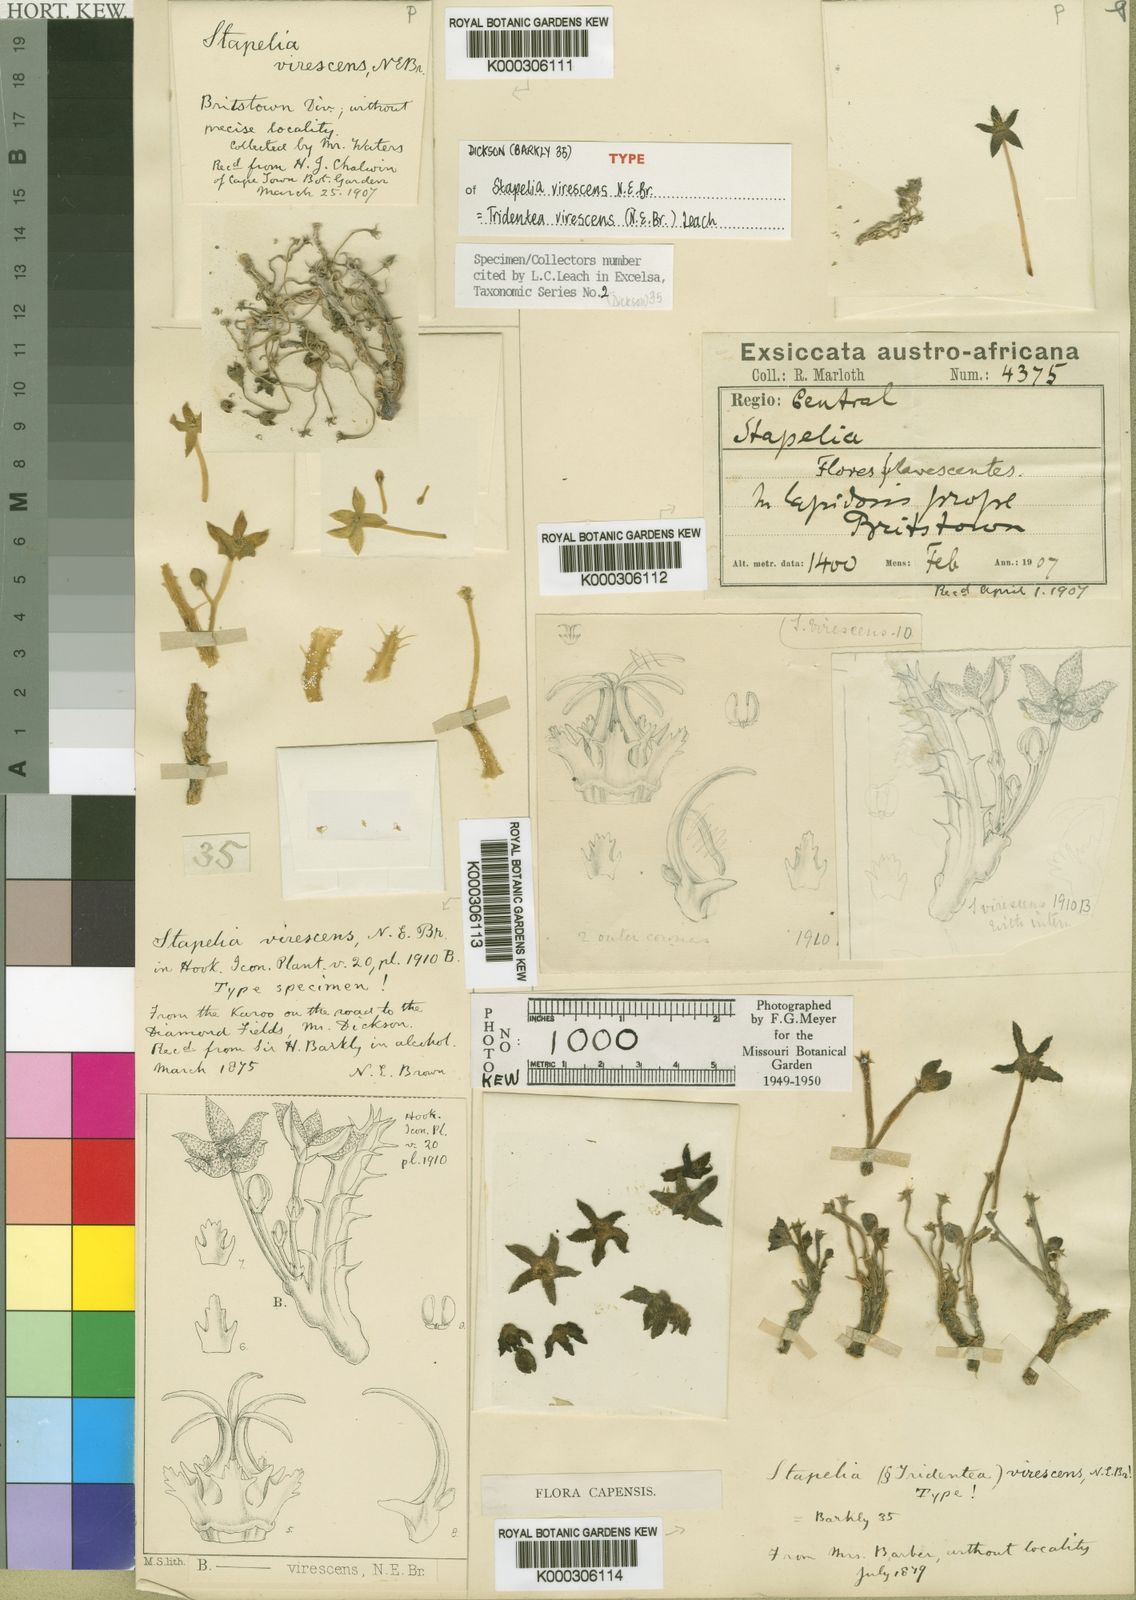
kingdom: Plantae
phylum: Tracheophyta
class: Magnoliopsida
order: Gentianales
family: Apocynaceae
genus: Ceropegia
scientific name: Ceropegia virescens
